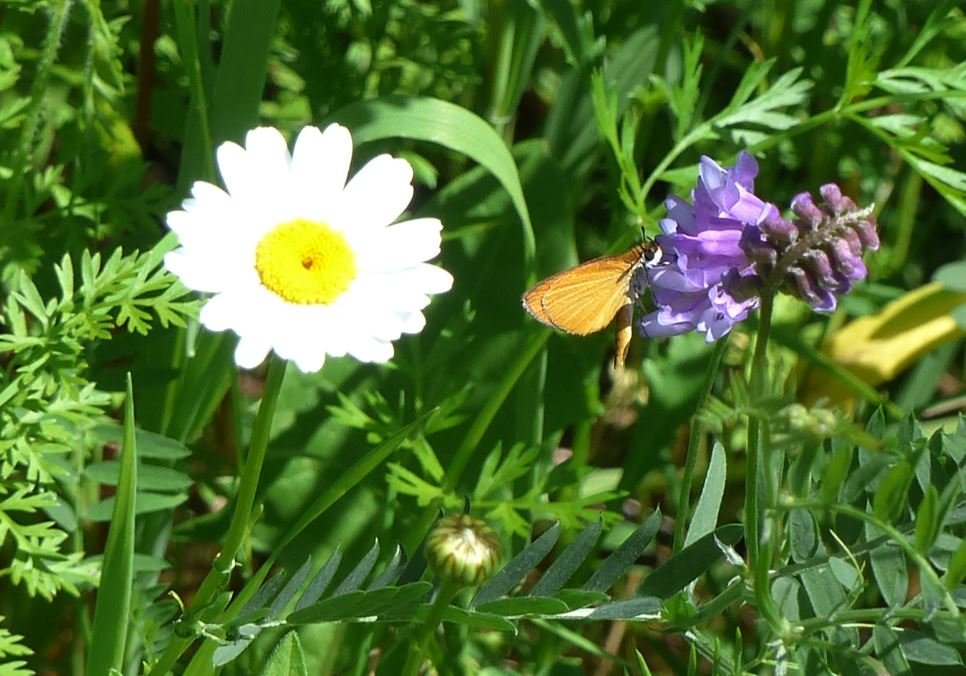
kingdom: Animalia
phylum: Arthropoda
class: Insecta
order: Lepidoptera
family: Hesperiidae
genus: Ancyloxypha
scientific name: Ancyloxypha numitor
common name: Least Skipper
